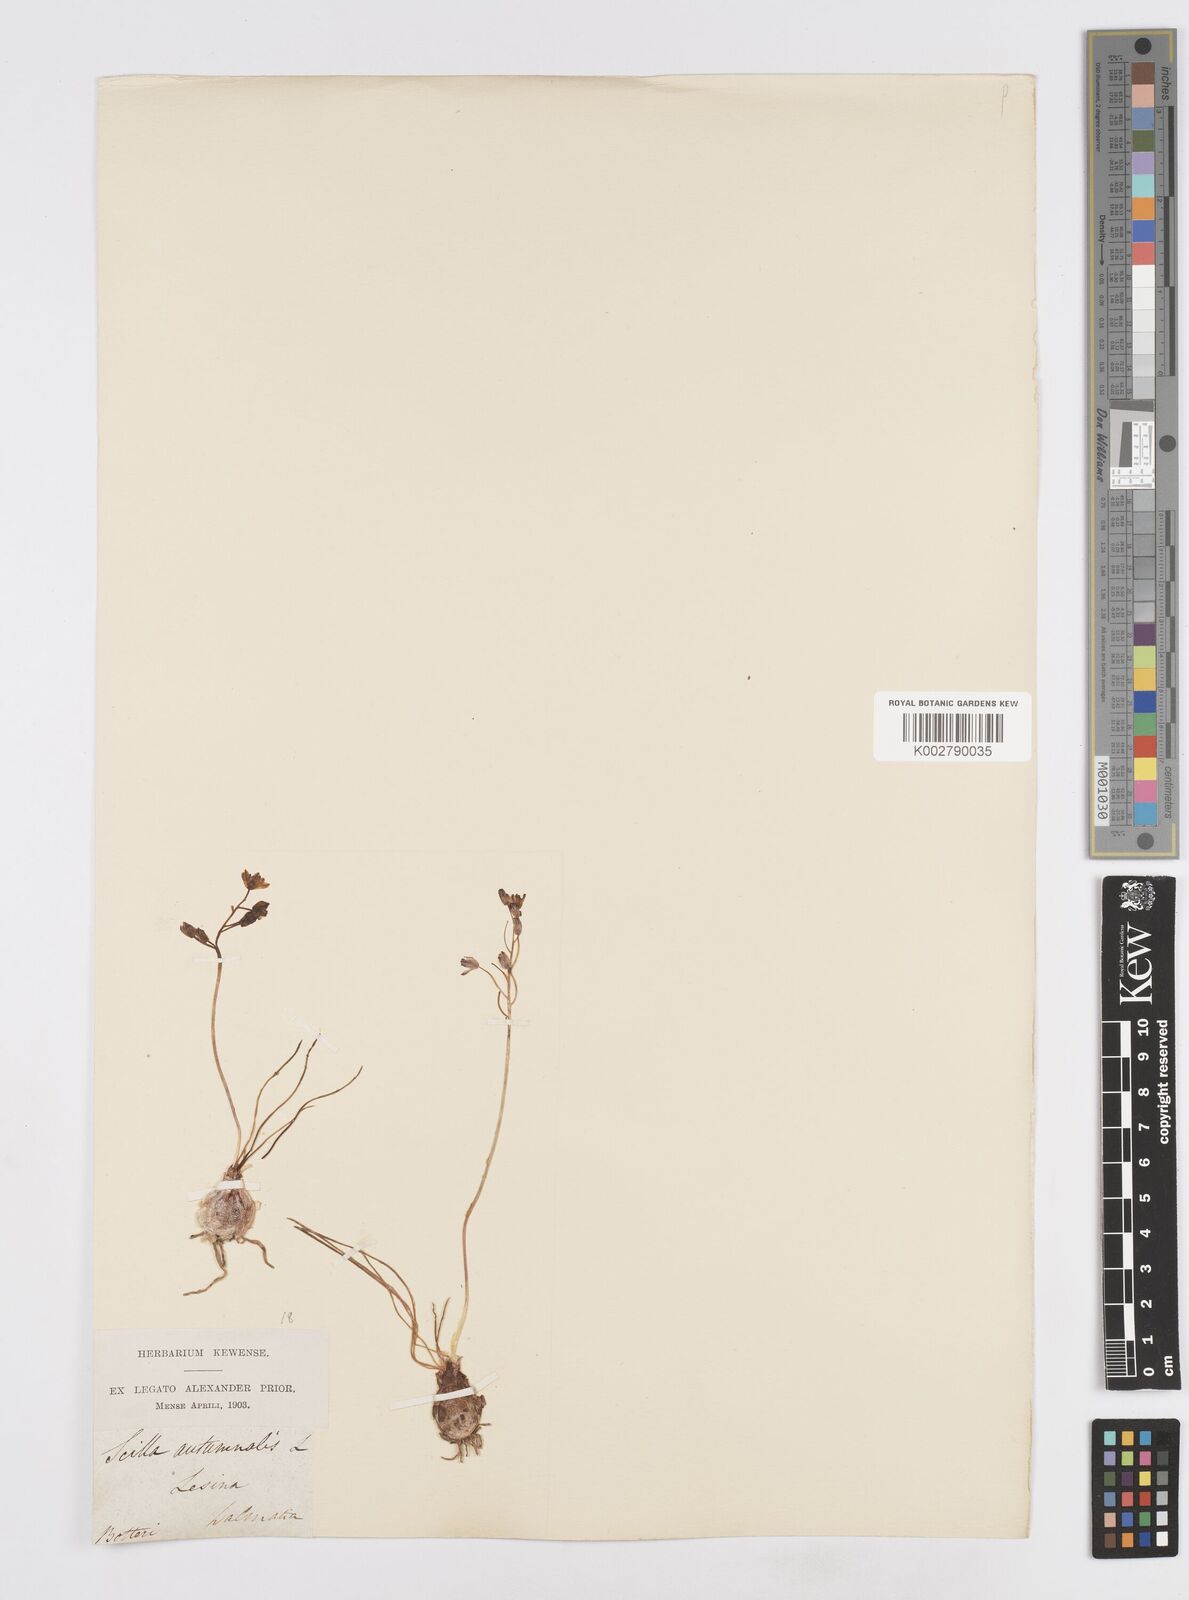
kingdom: Plantae
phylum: Tracheophyta
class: Liliopsida
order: Asparagales
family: Asparagaceae
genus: Prospero
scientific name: Prospero autumnale
